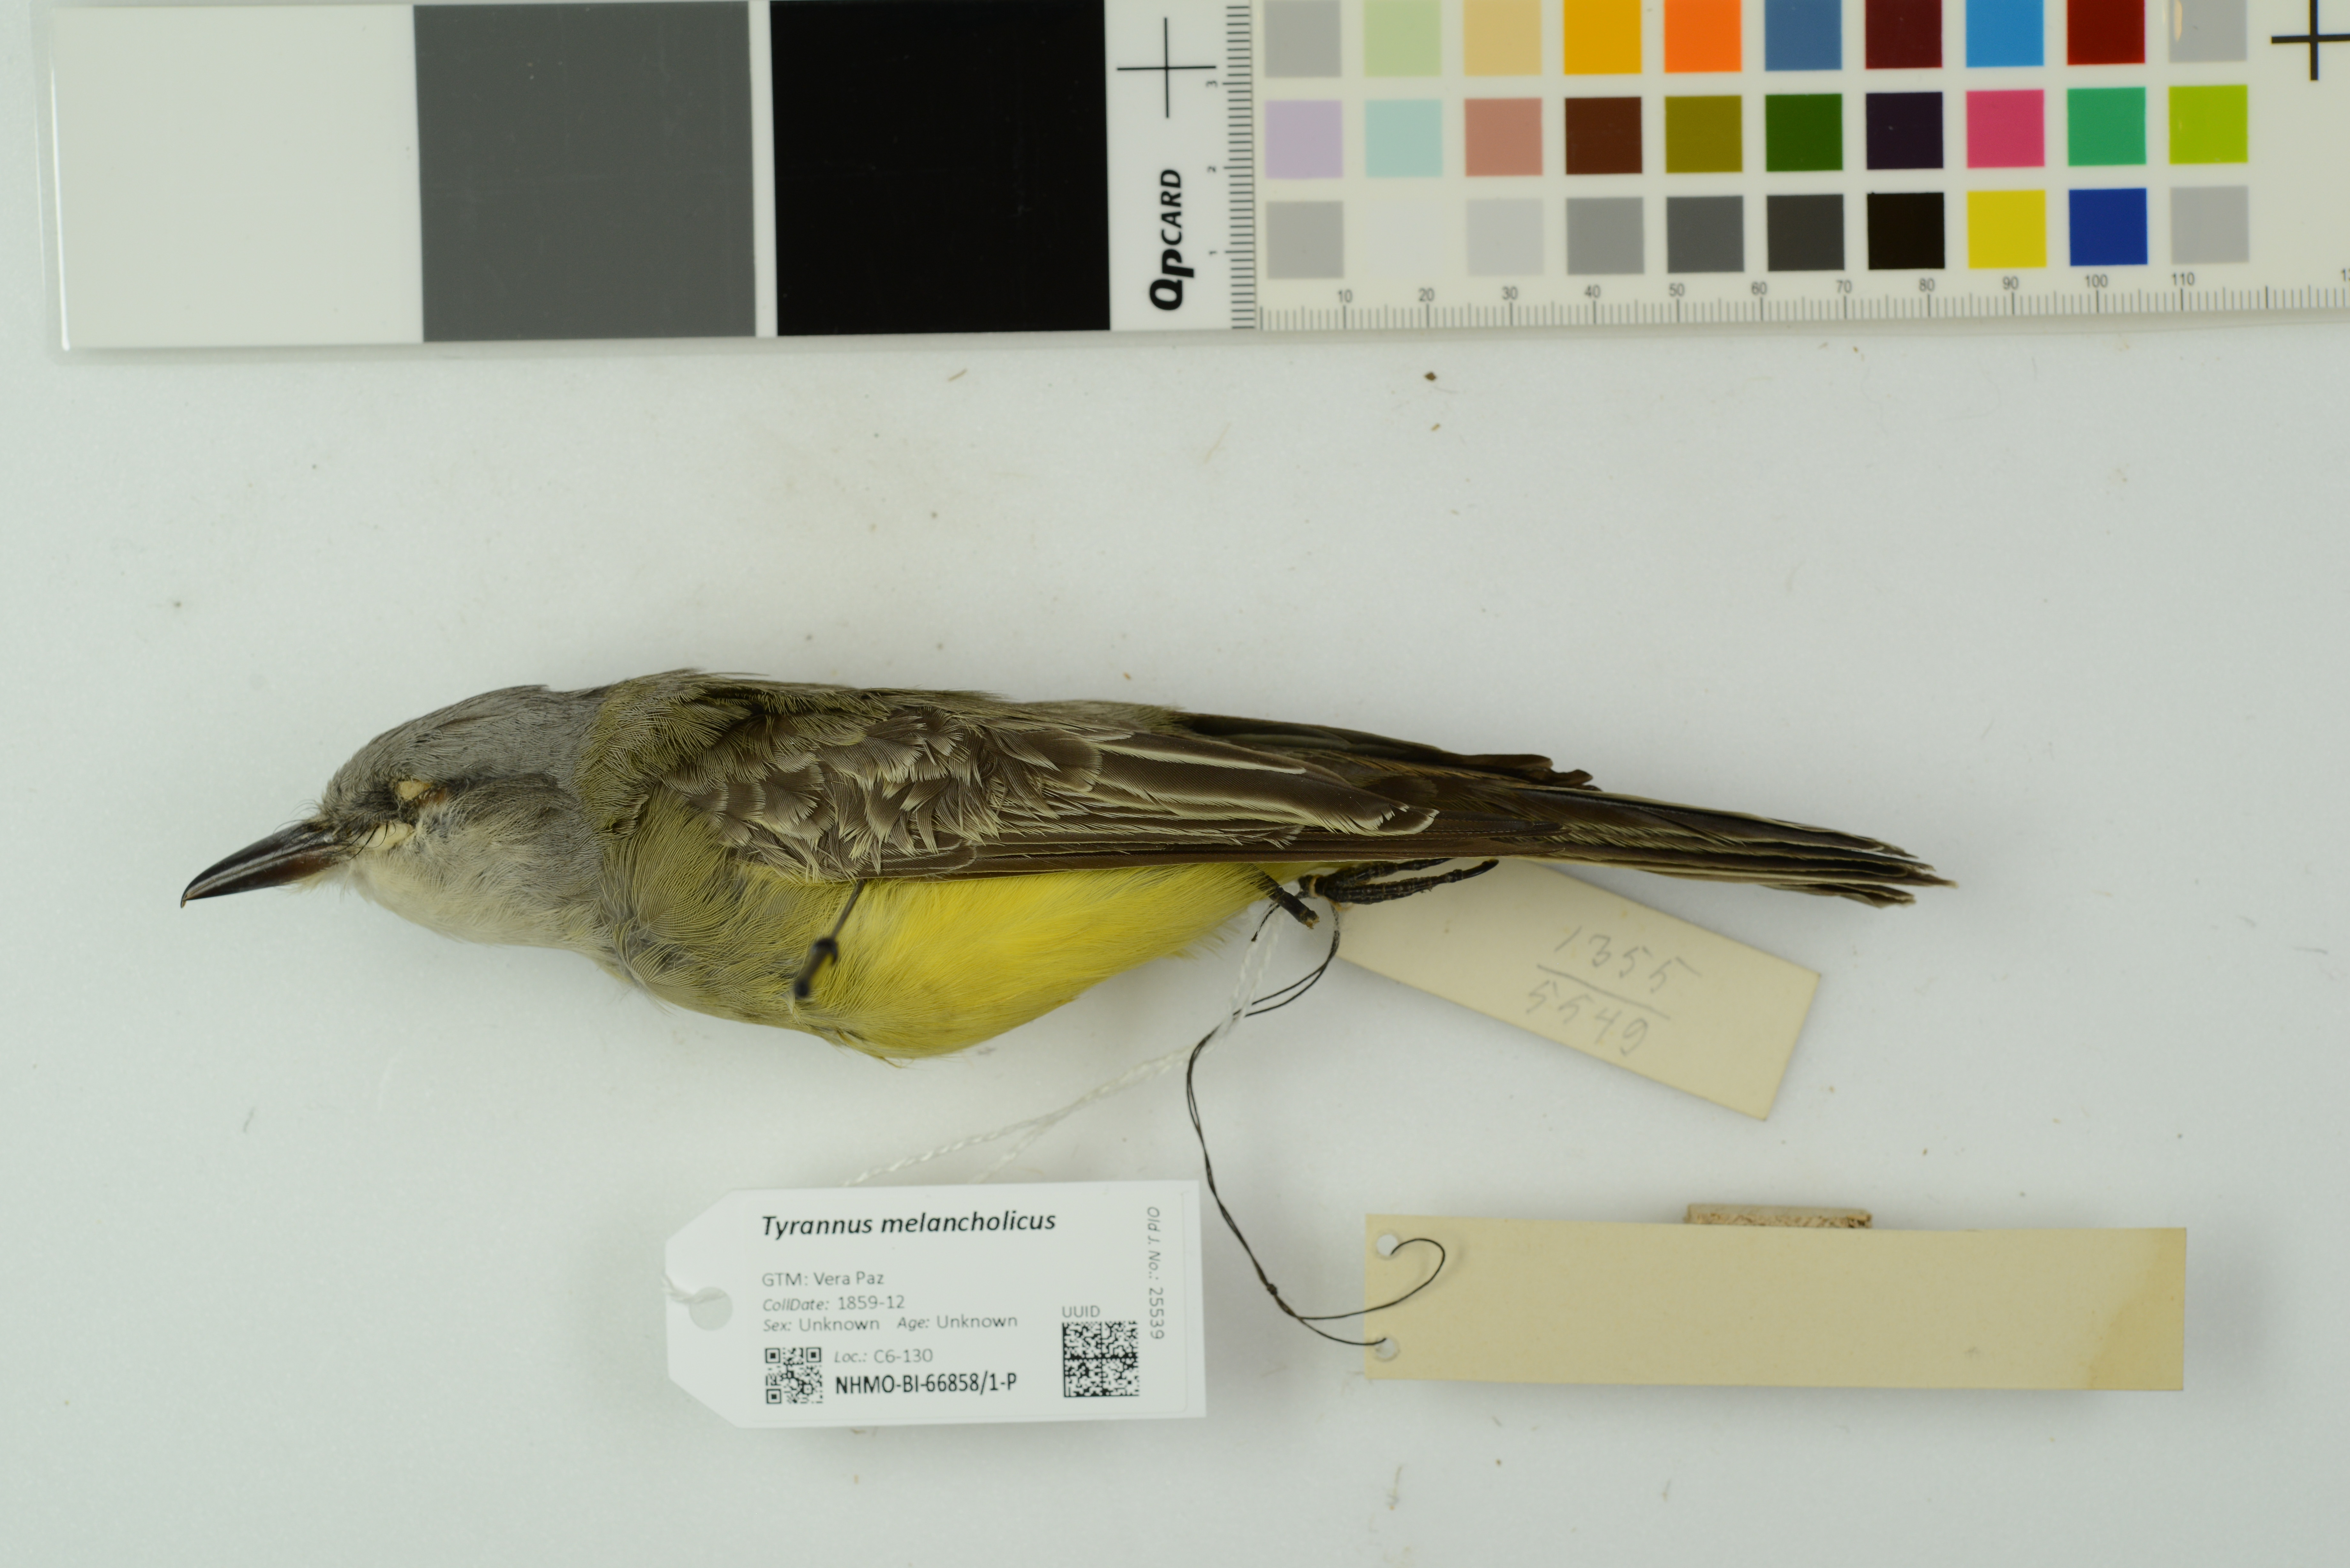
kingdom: Animalia
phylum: Chordata
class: Aves
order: Passeriformes
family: Tyrannidae
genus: Tyrannus
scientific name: Tyrannus melancholicus
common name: Tropical kingbird
